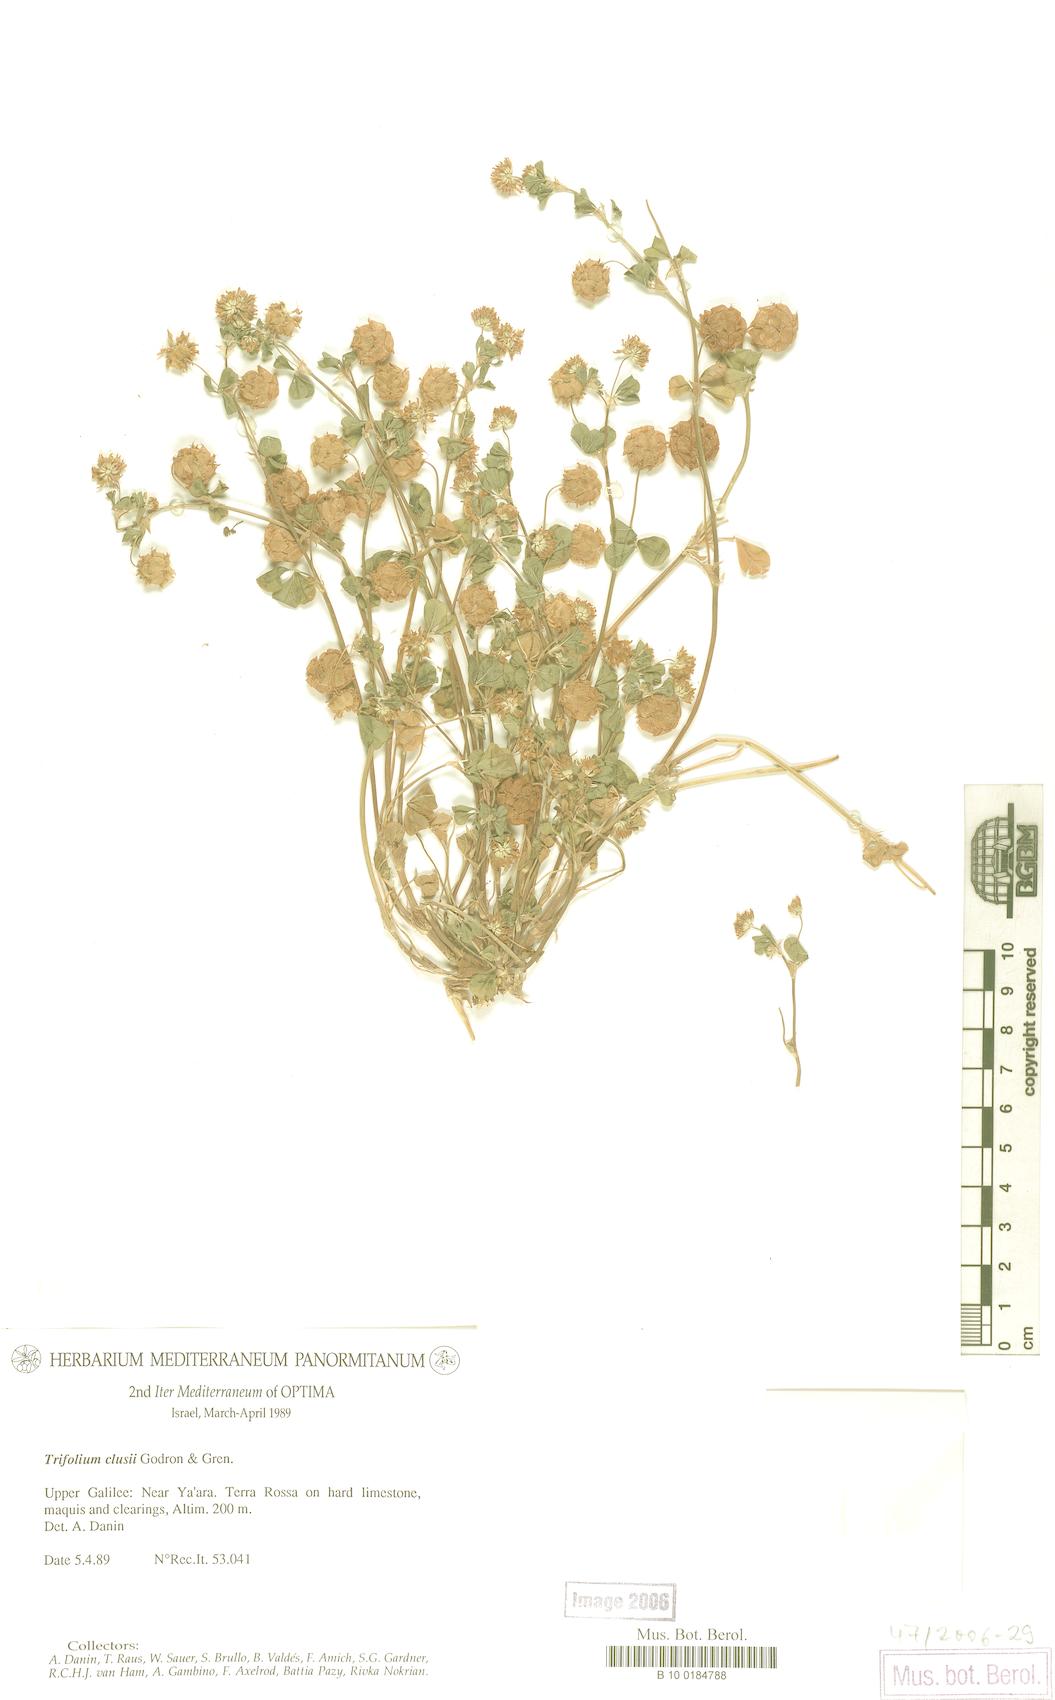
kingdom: Plantae
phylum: Tracheophyta
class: Magnoliopsida
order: Fabales
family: Fabaceae
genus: Trifolium
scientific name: Trifolium clusii
